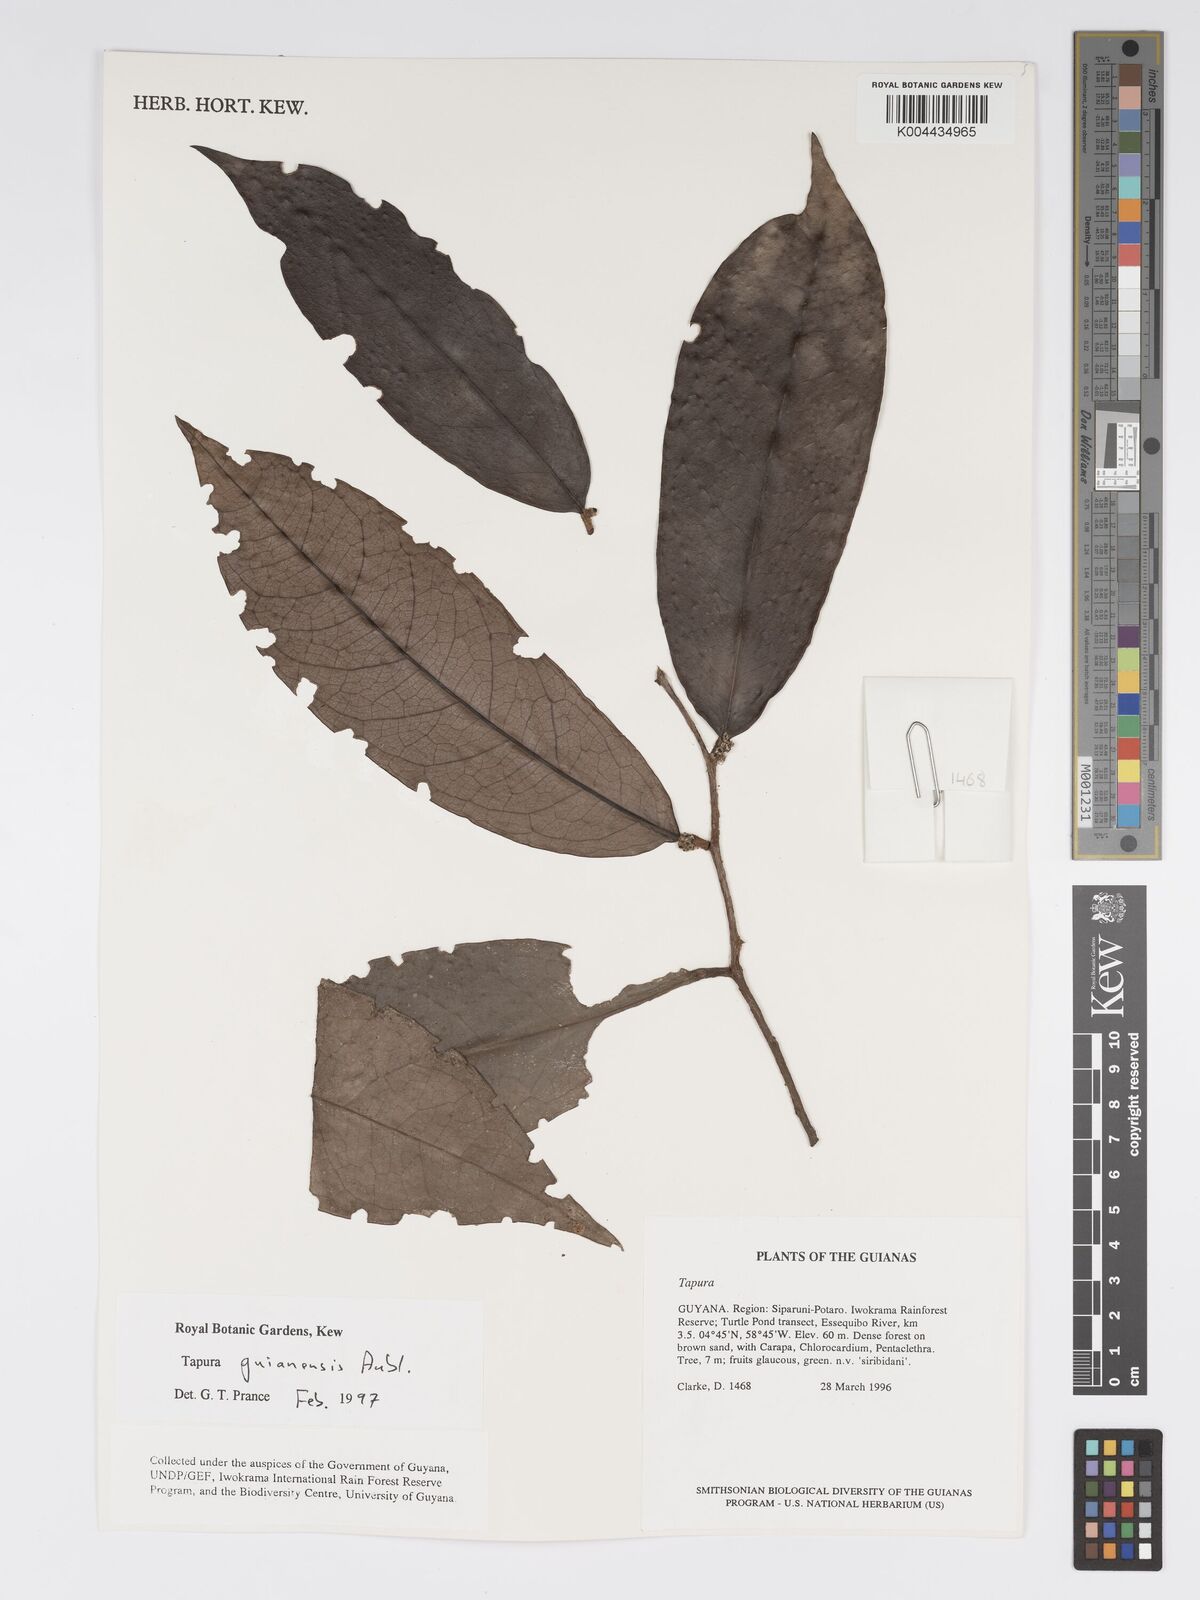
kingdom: Plantae
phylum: Tracheophyta
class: Magnoliopsida
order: Malpighiales
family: Dichapetalaceae
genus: Tapura
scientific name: Tapura guianensis
